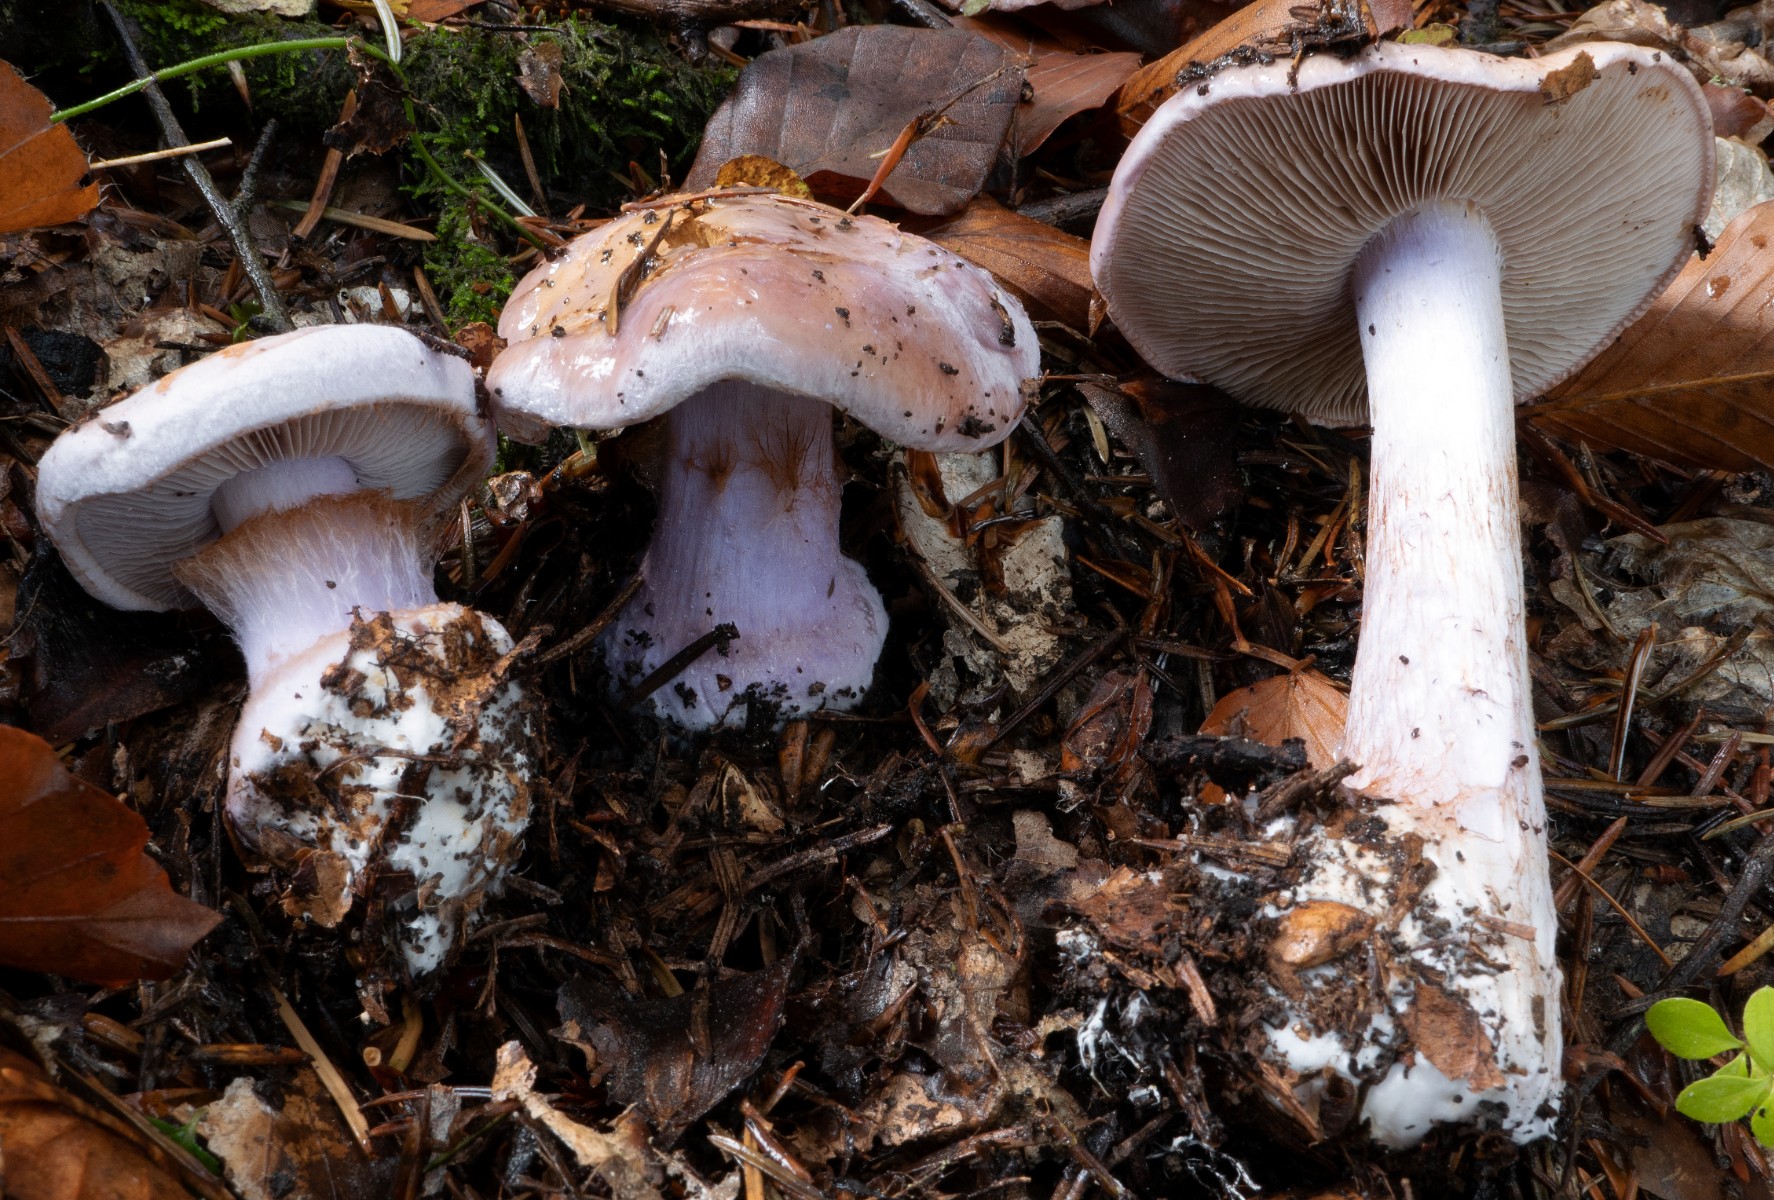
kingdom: Fungi
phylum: Basidiomycota
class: Agaricomycetes
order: Agaricales
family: Cortinariaceae
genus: Calonarius
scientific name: Calonarius dibaphus
